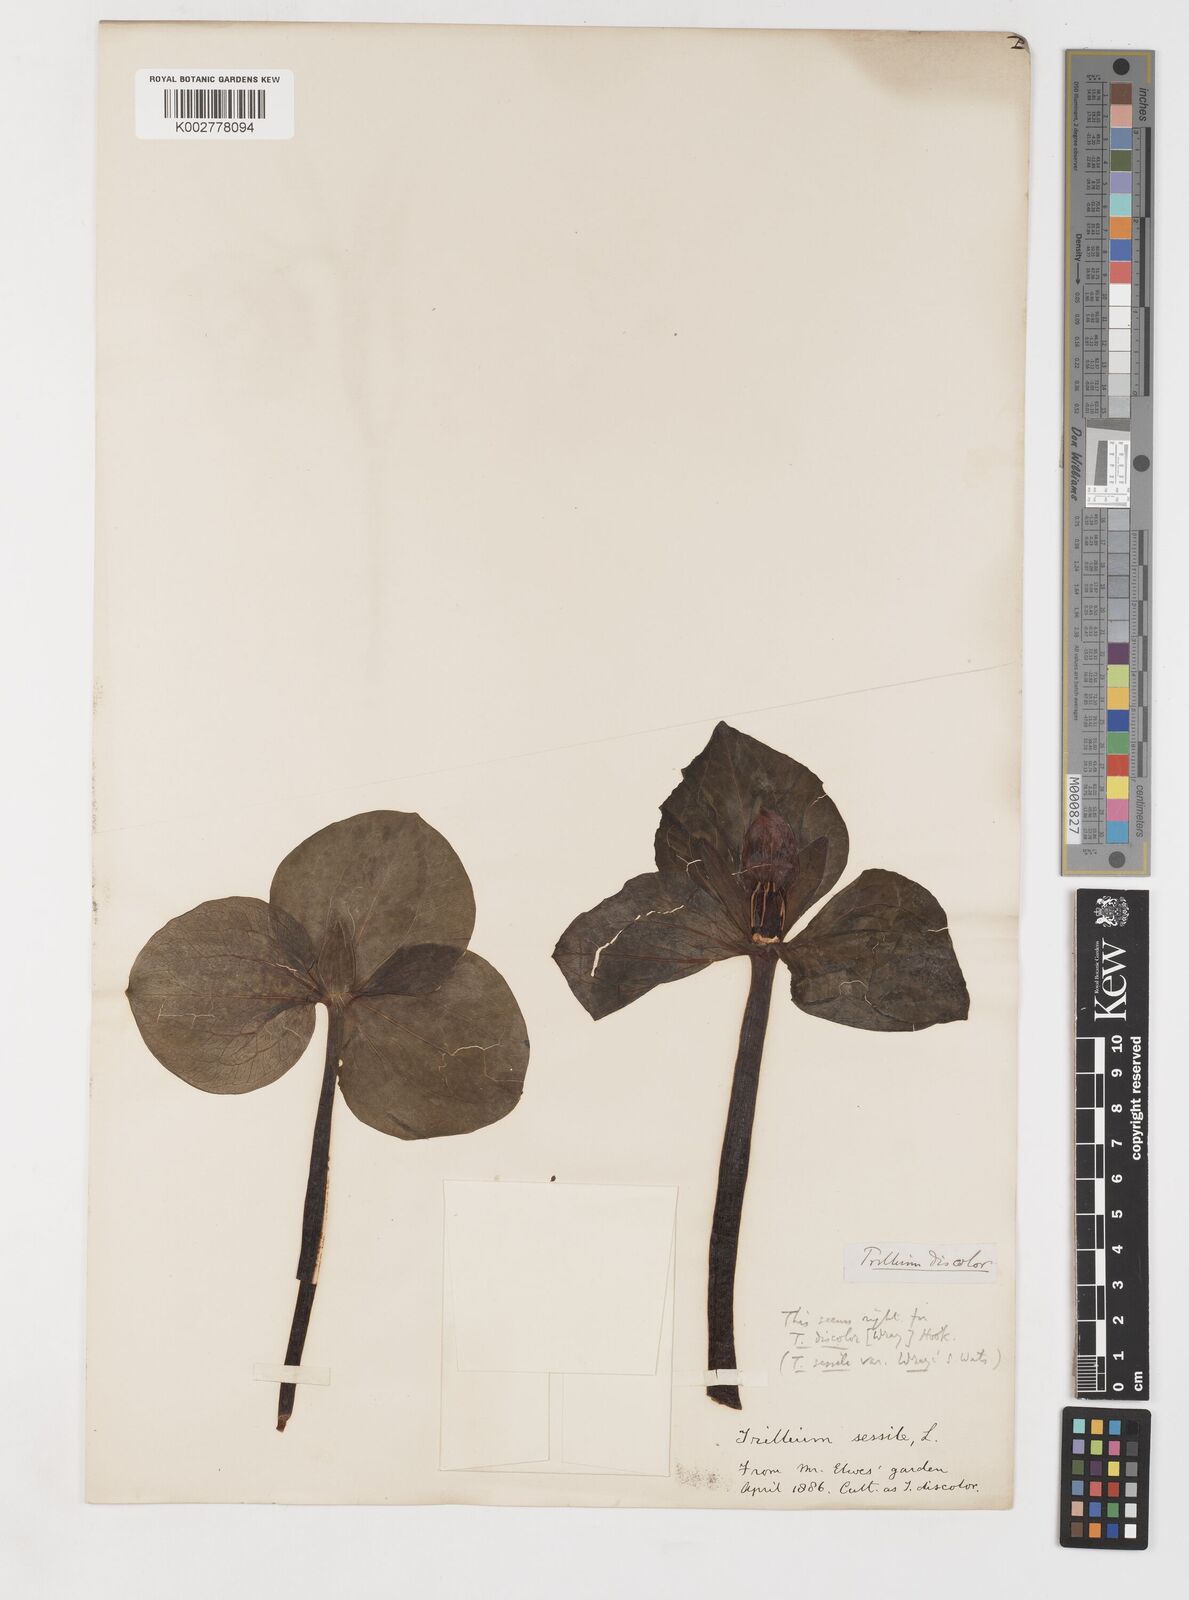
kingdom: Plantae
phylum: Tracheophyta
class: Liliopsida
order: Liliales
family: Melanthiaceae
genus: Trillium
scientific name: Trillium discolor
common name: Faded trillium
